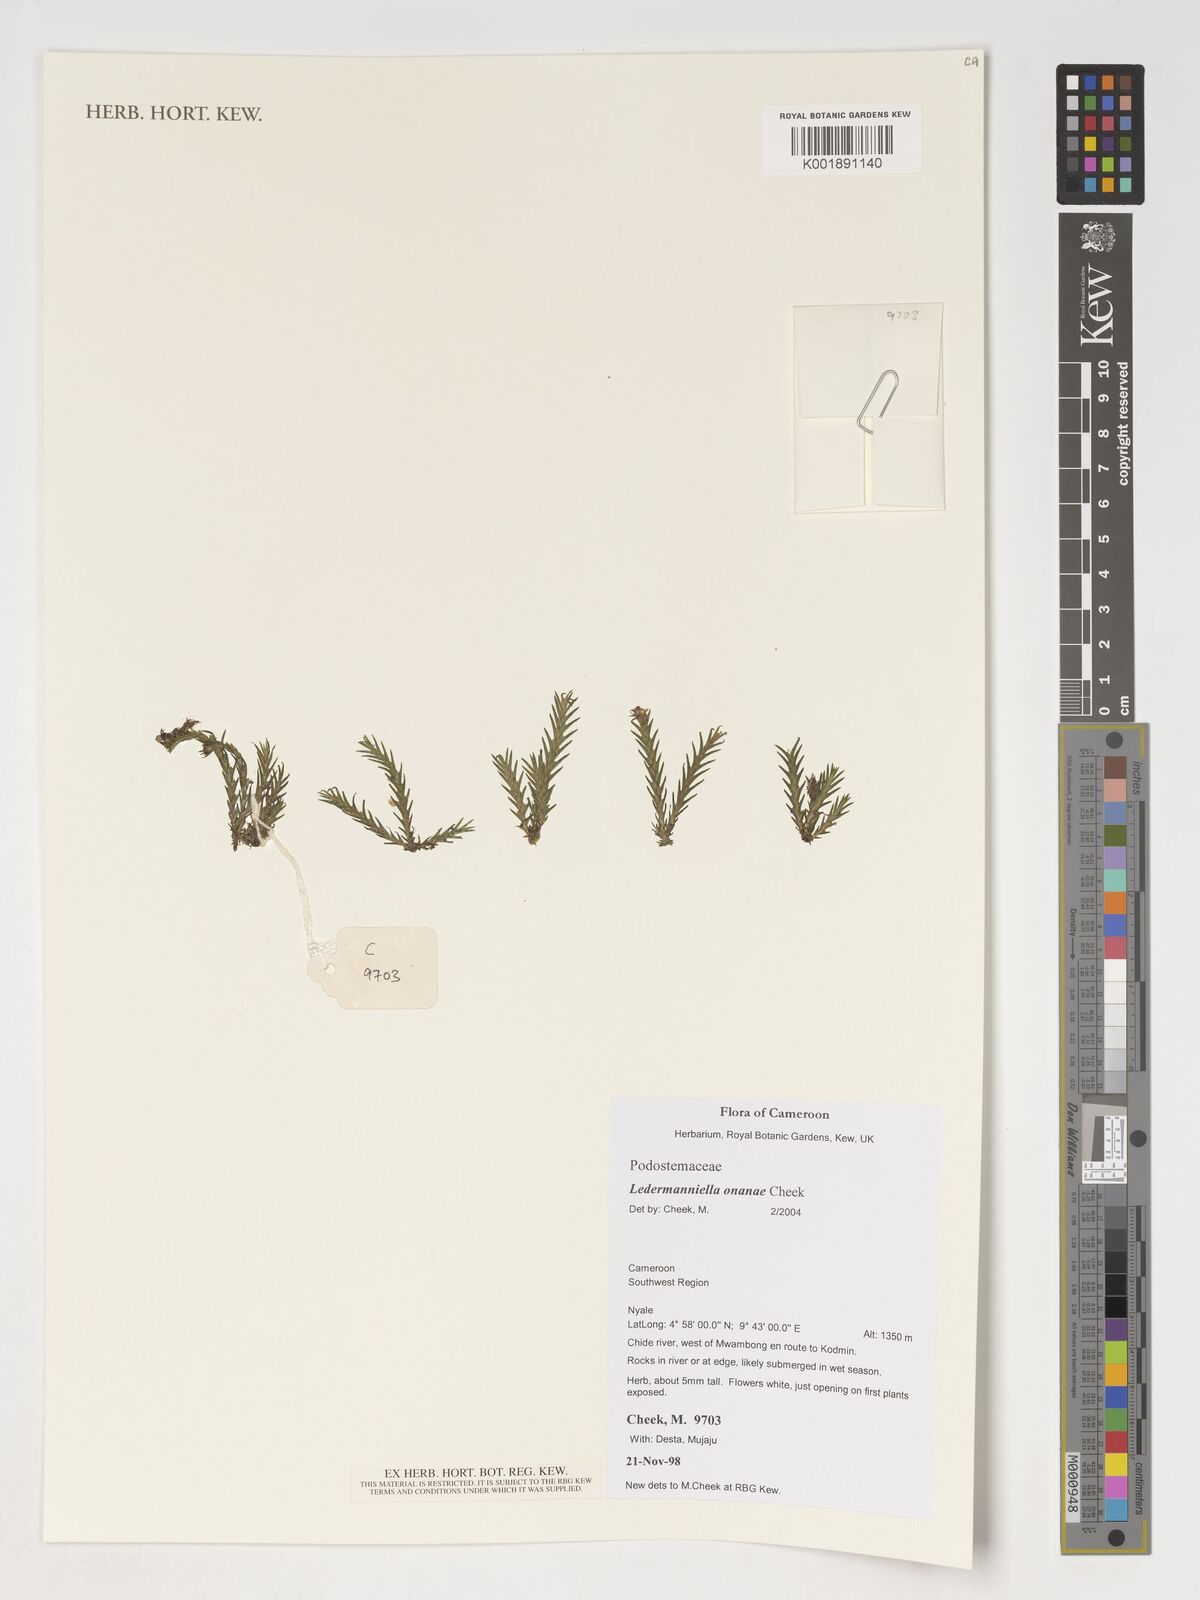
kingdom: Plantae
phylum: Tracheophyta
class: Magnoliopsida
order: Malpighiales
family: Podostemaceae
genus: Ledermanniella
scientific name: Ledermanniella onanae
